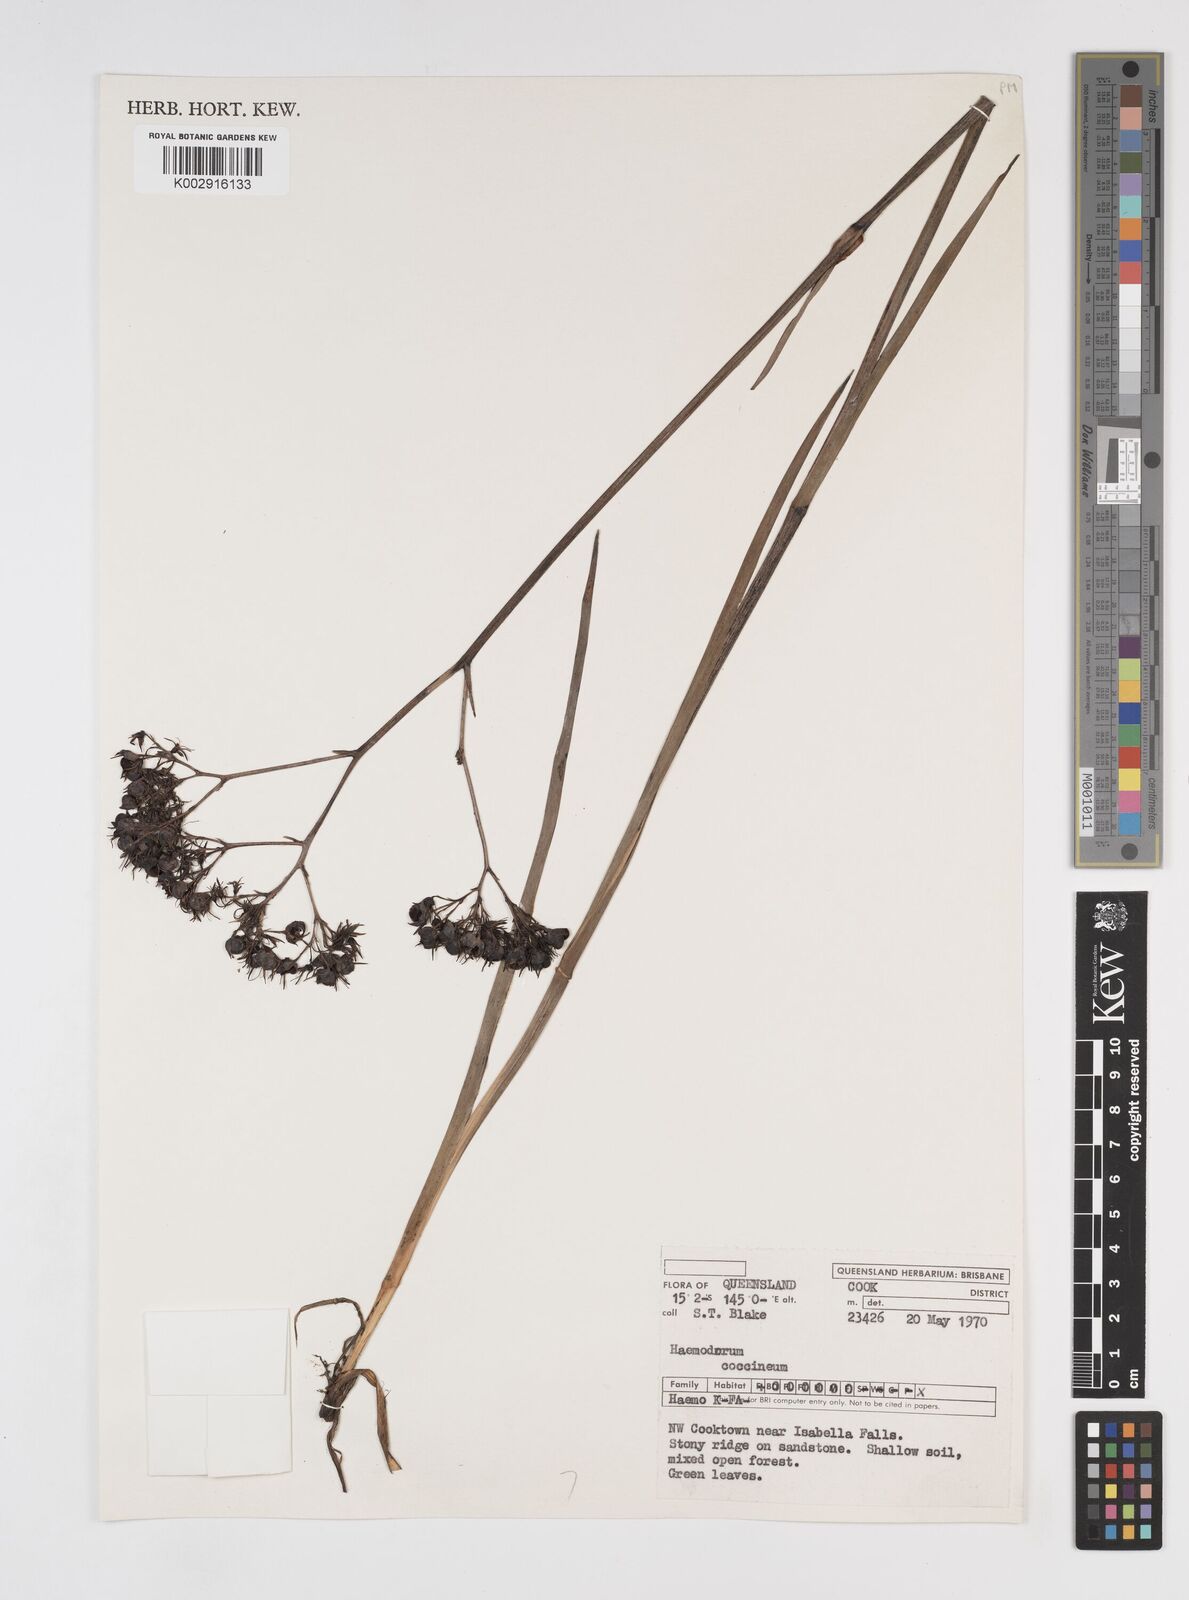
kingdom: Plantae
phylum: Tracheophyta
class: Liliopsida
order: Commelinales
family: Haemodoraceae
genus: Haemodorum
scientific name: Haemodorum coccineum
